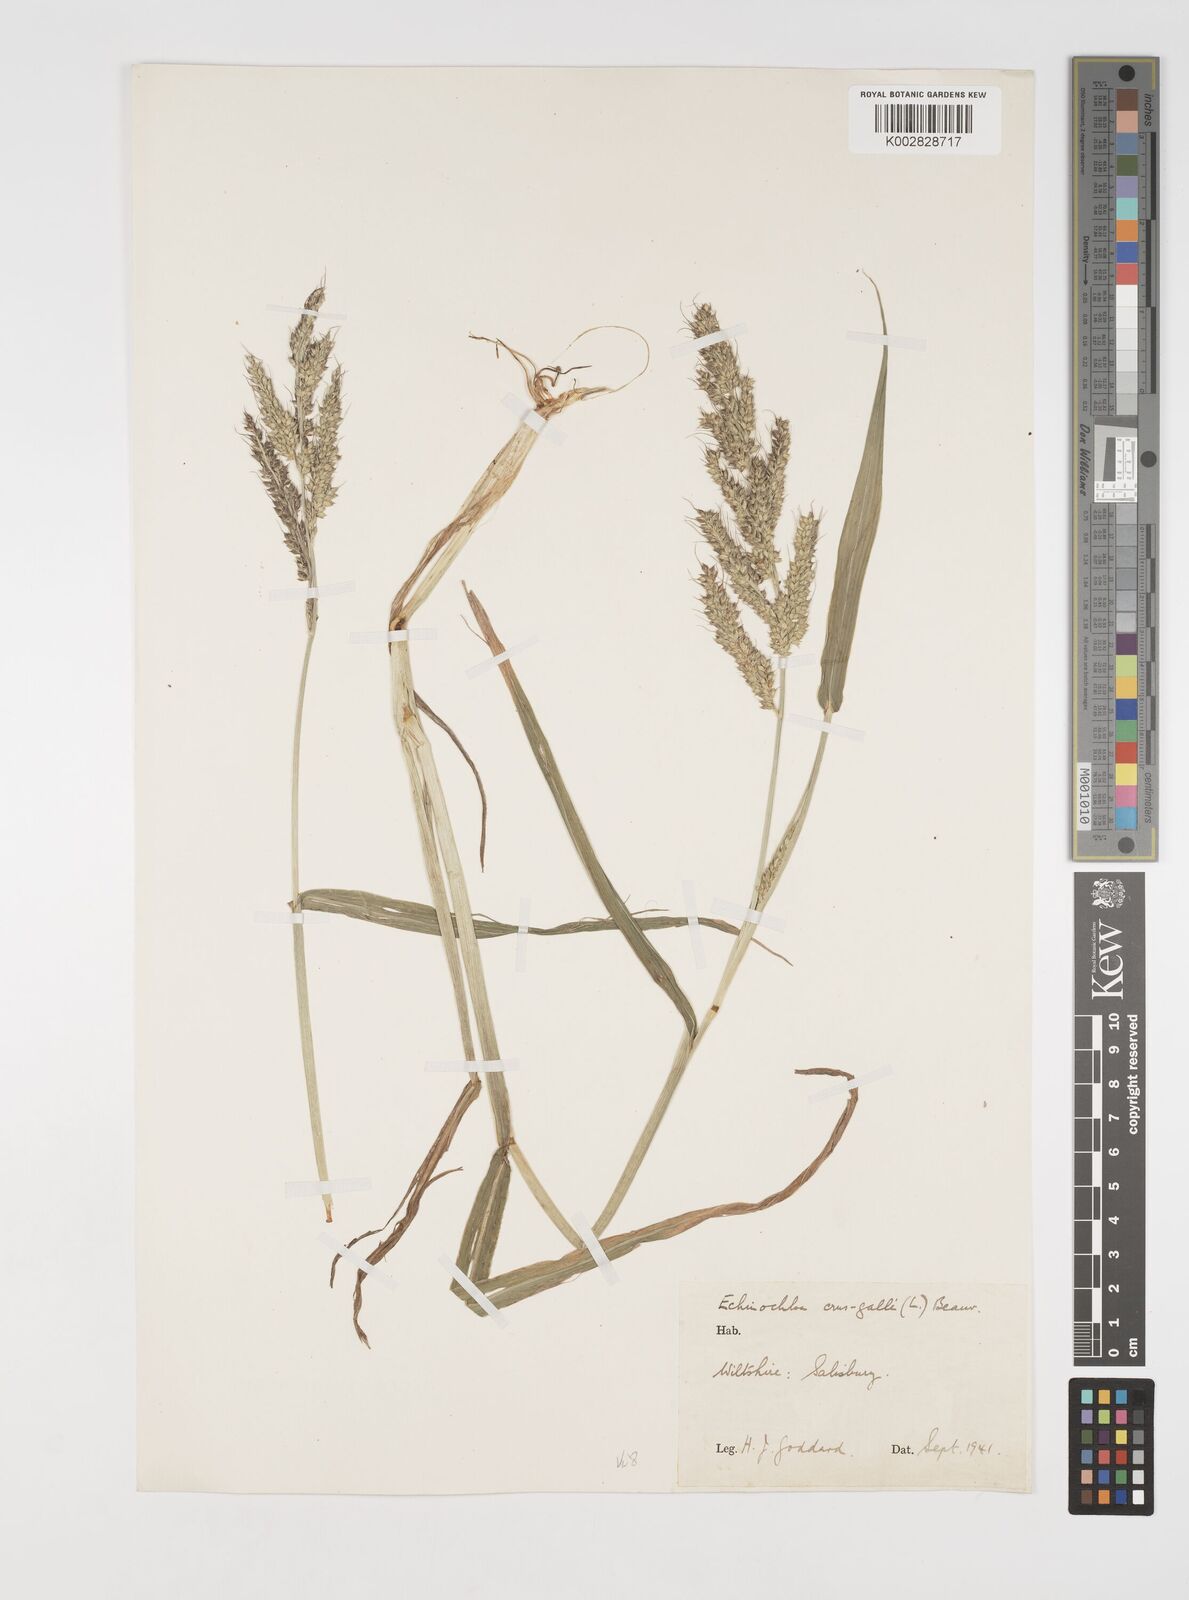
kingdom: Plantae
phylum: Tracheophyta
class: Liliopsida
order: Poales
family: Poaceae
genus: Echinochloa
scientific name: Echinochloa crus-galli
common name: Cockspur
